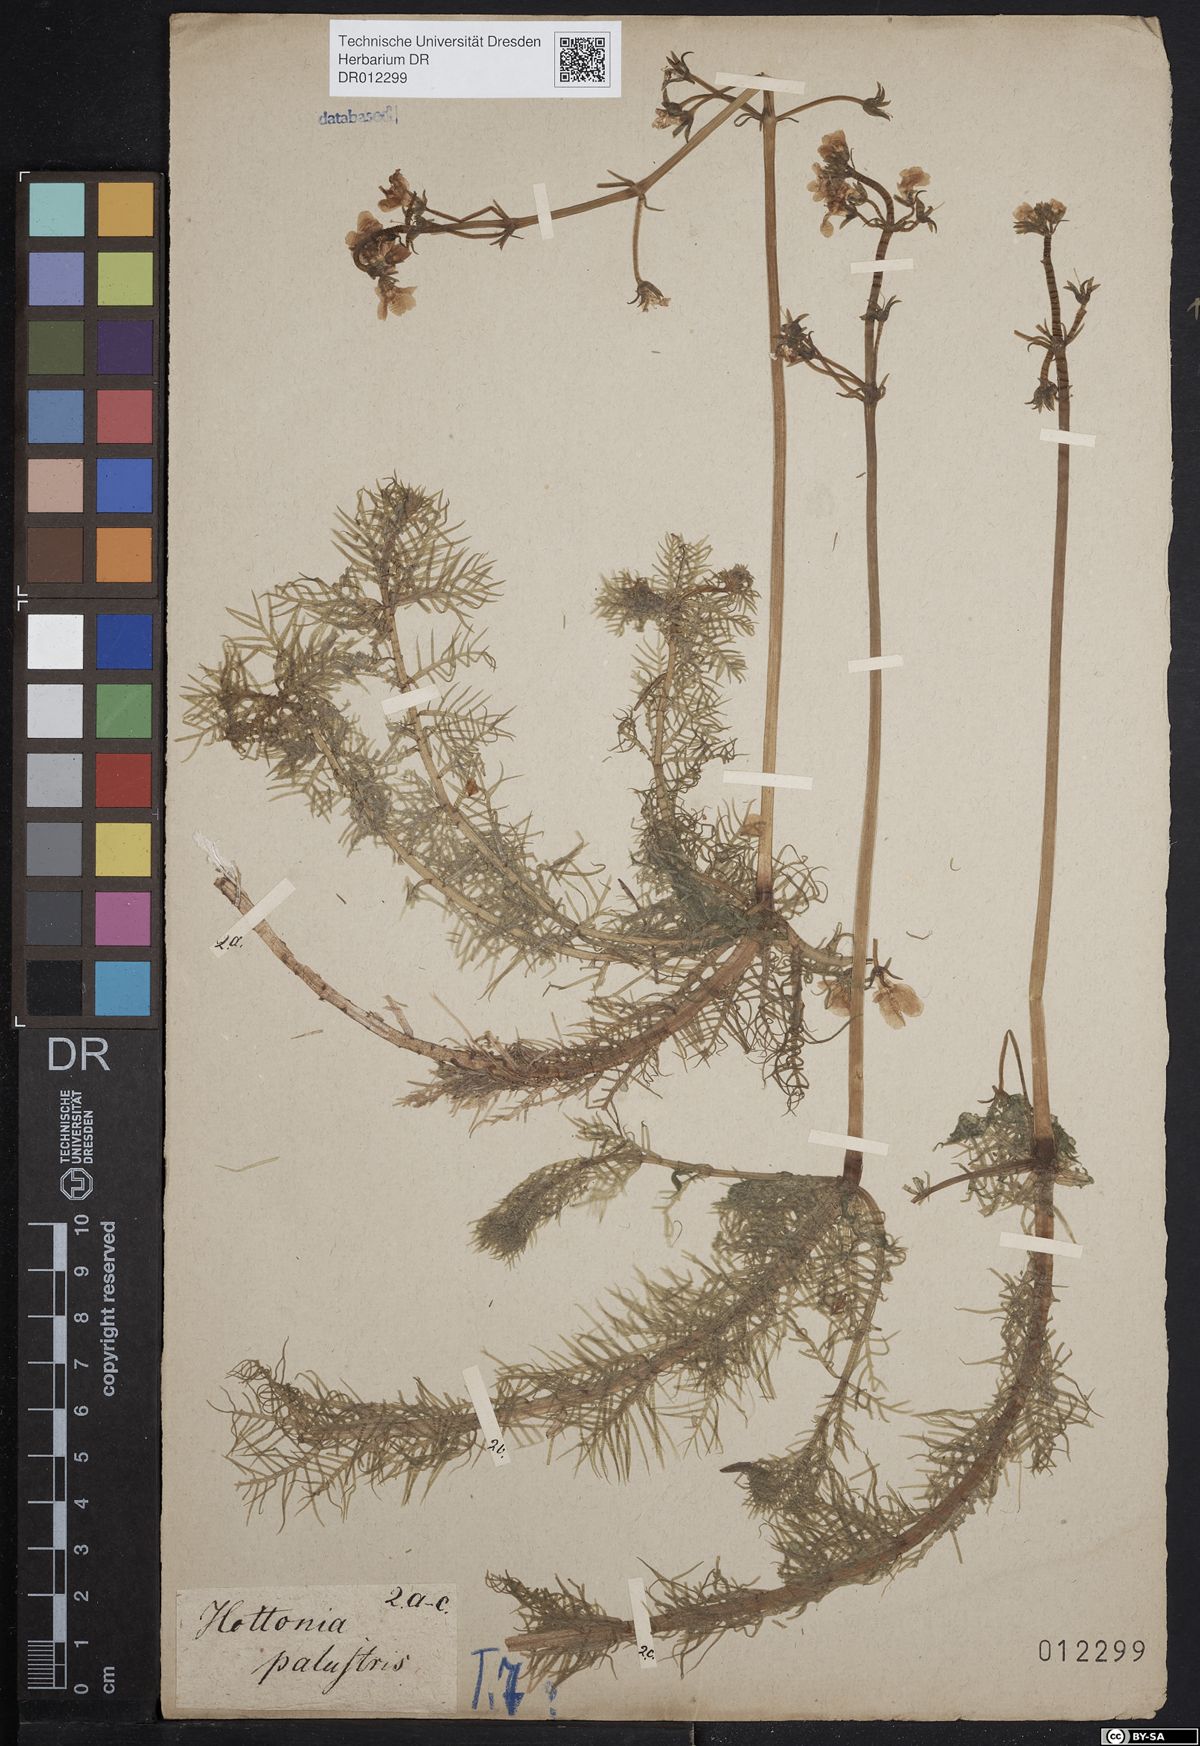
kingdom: Plantae
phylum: Tracheophyta
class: Magnoliopsida
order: Ericales
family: Primulaceae
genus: Hottonia
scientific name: Hottonia palustris
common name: Water-violet
